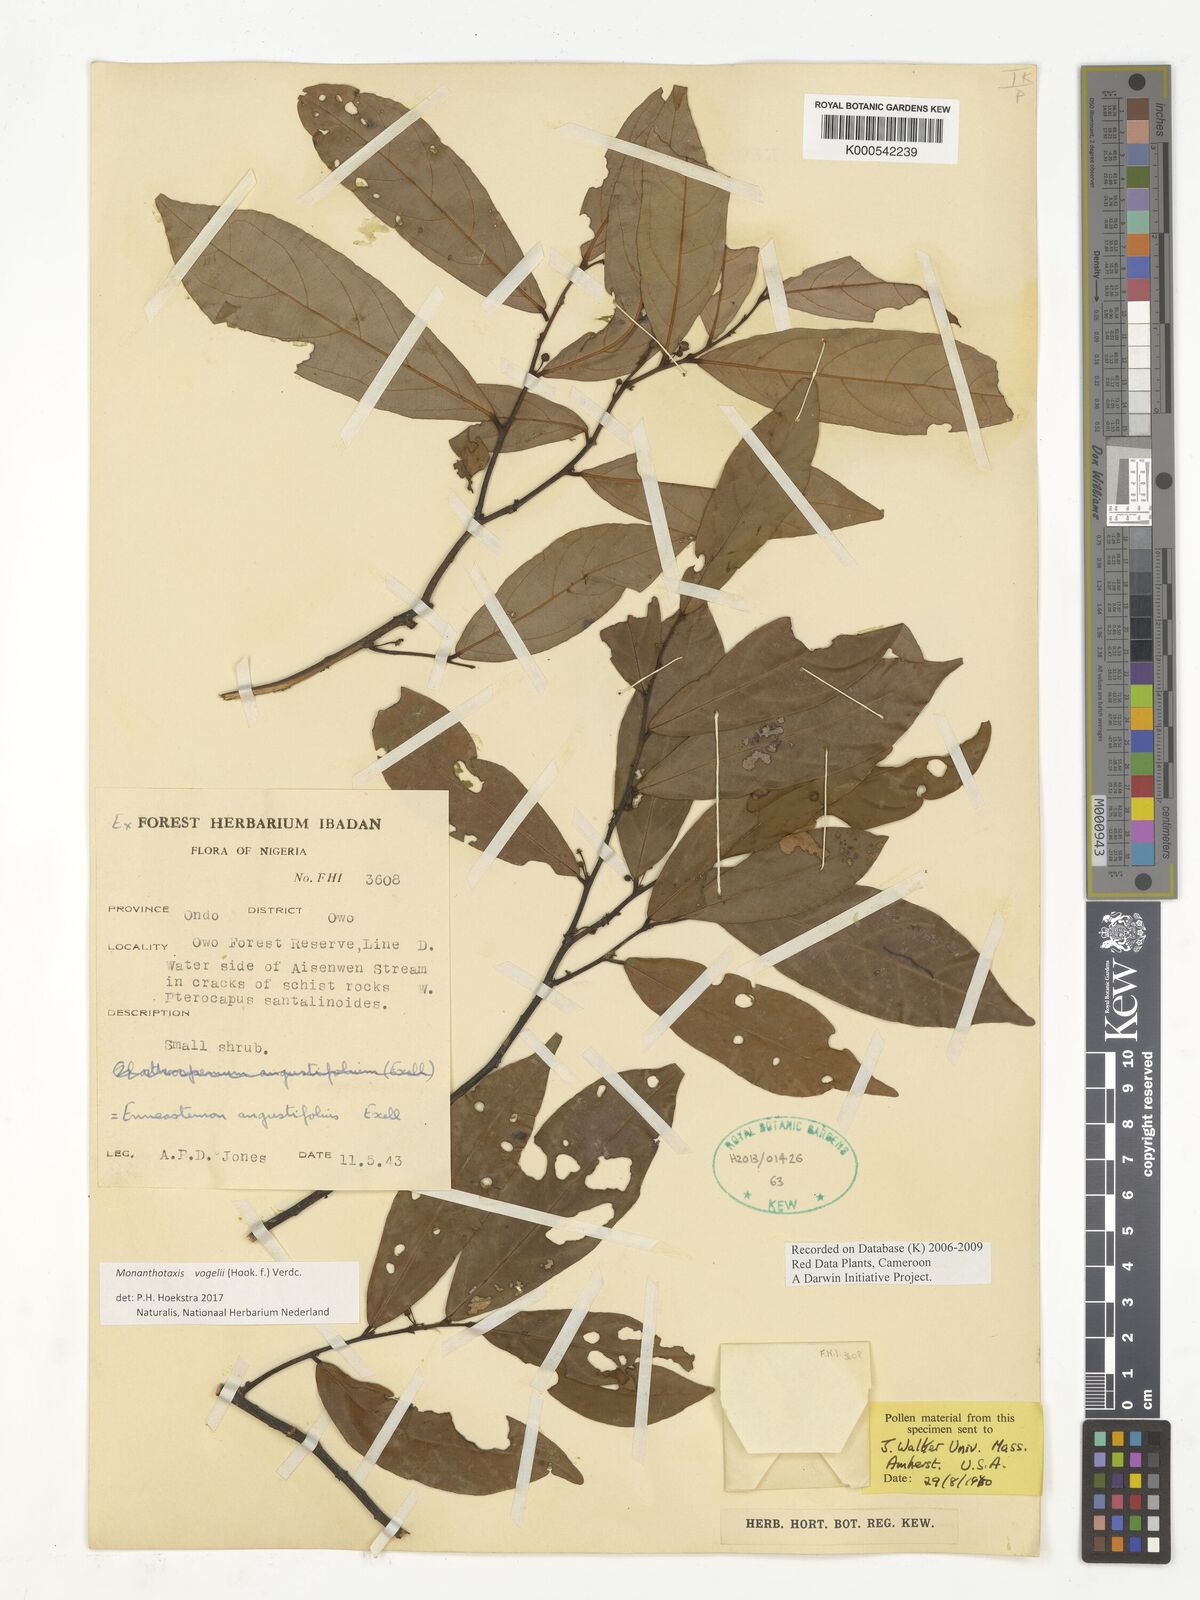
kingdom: Plantae
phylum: Tracheophyta
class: Magnoliopsida
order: Magnoliales
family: Annonaceae
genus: Monanthotaxis
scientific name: Monanthotaxis vogelii
